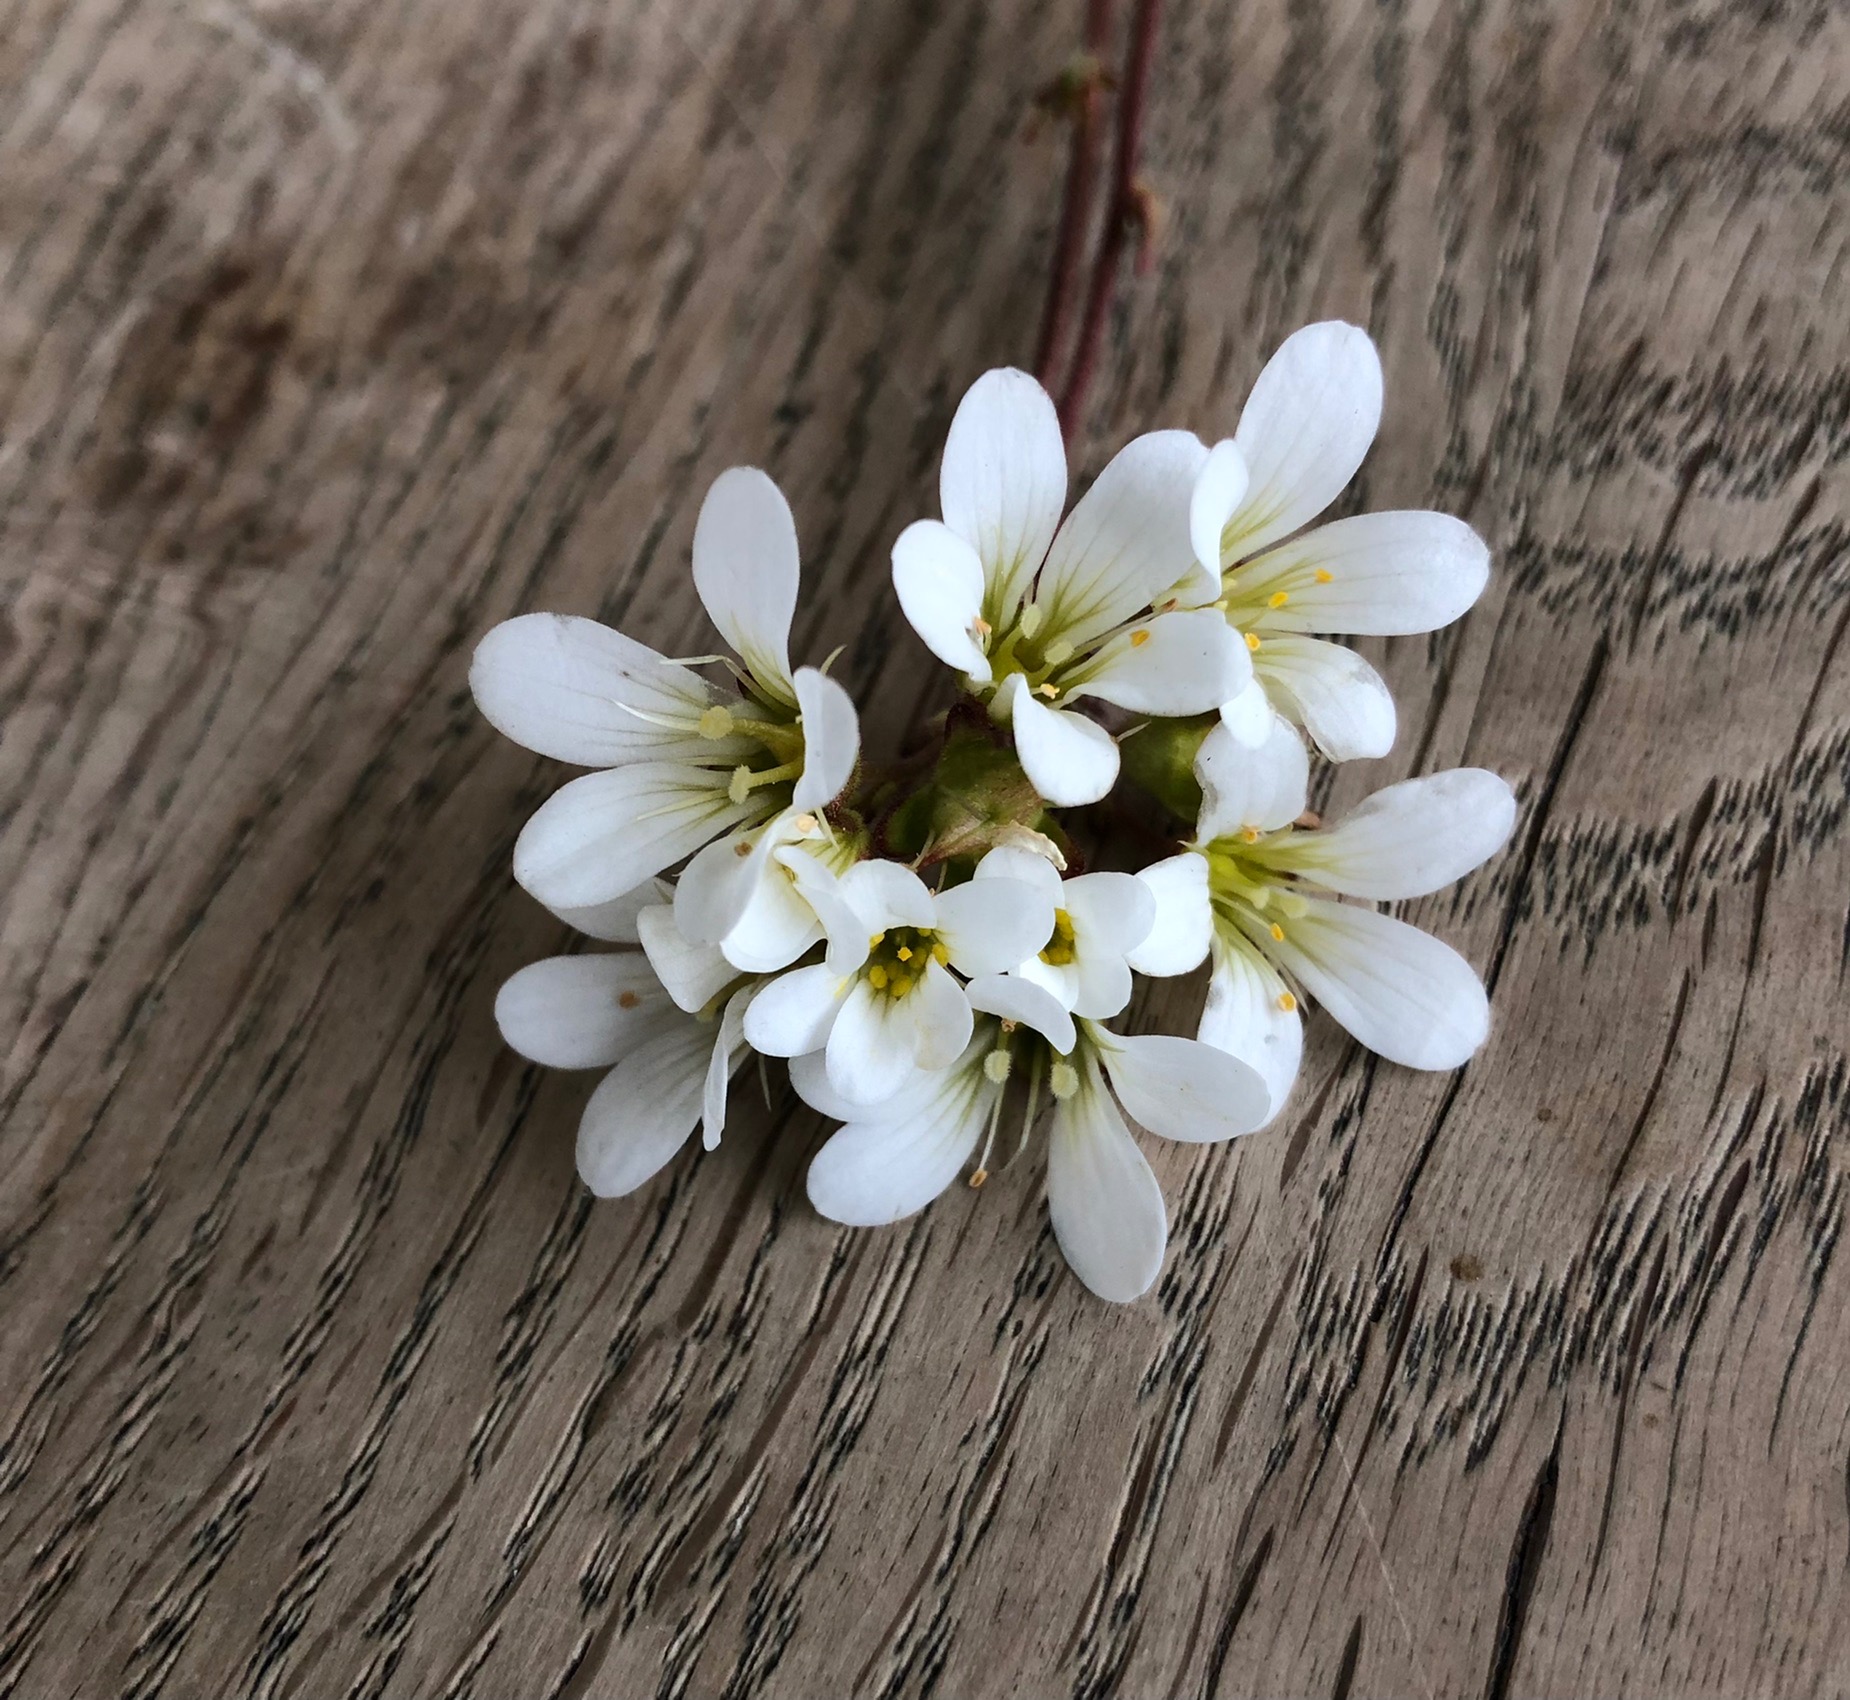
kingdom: Plantae
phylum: Tracheophyta
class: Magnoliopsida
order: Saxifragales
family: Saxifragaceae
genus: Saxifraga
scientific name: Saxifraga granulata
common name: Kornet stenbræk
